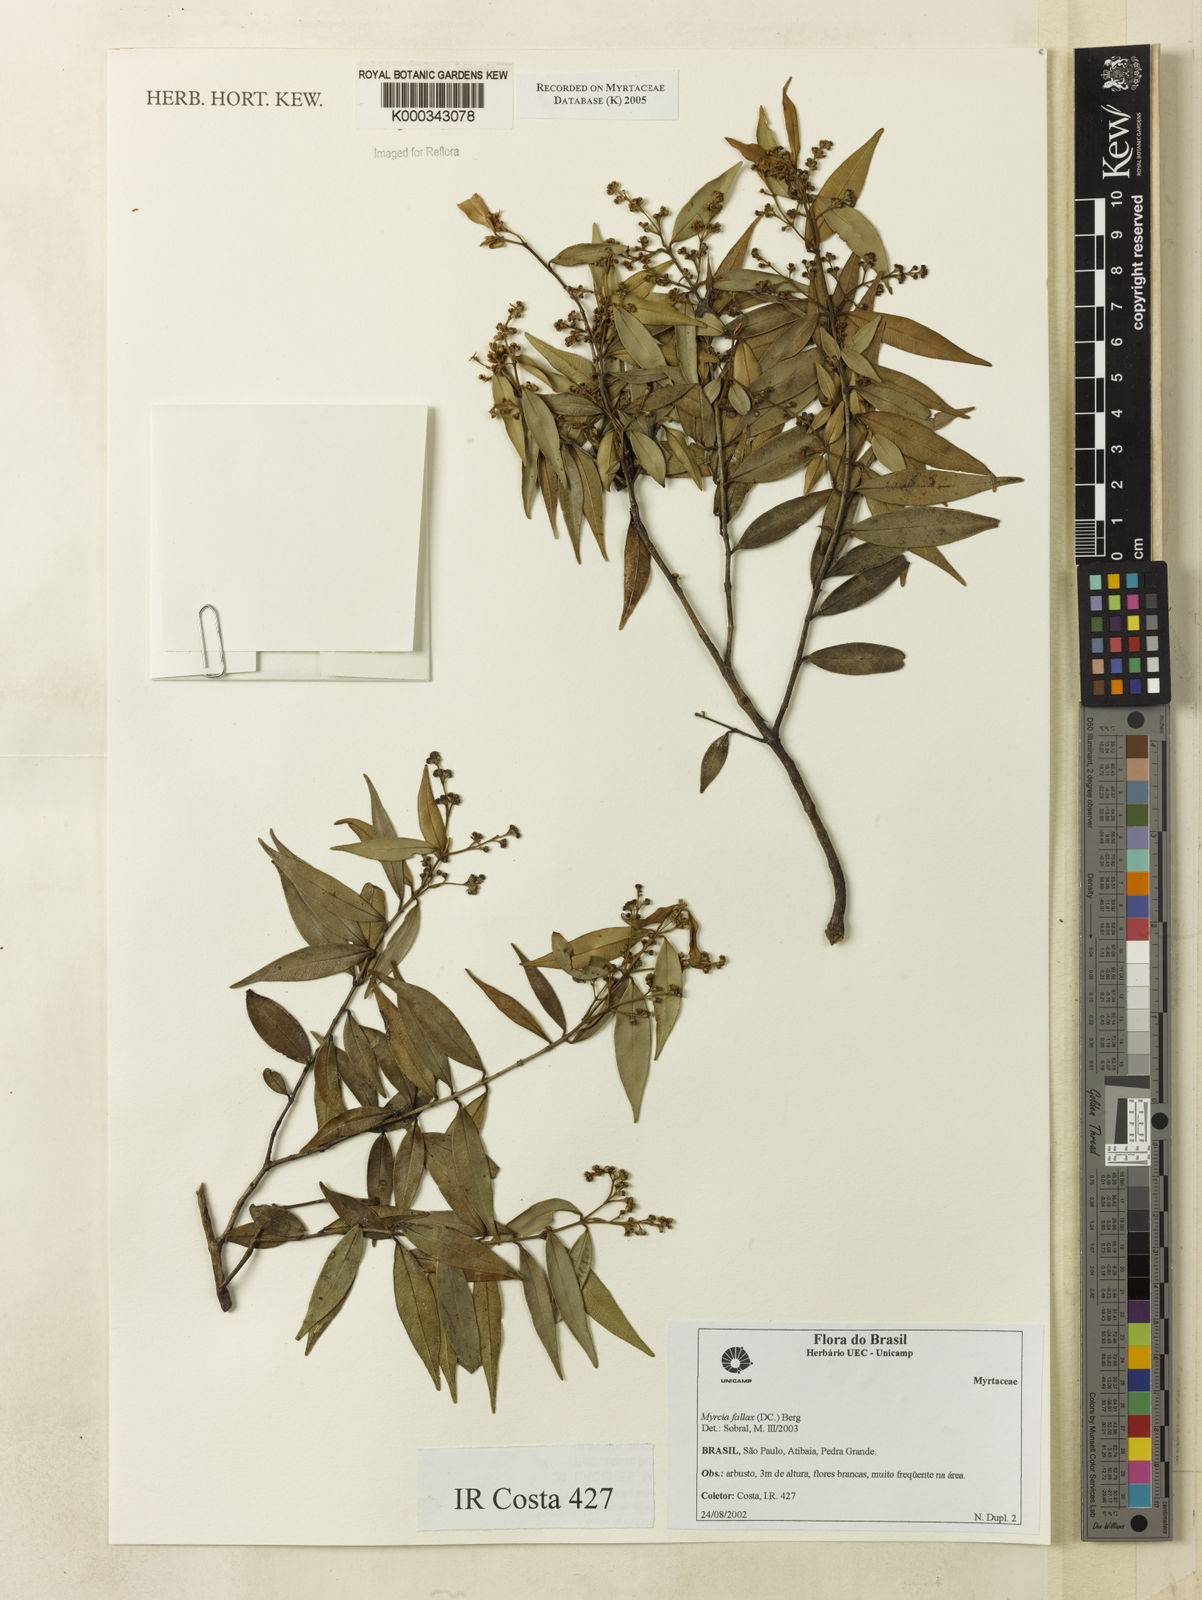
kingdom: Plantae
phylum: Tracheophyta
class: Magnoliopsida
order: Myrtales
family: Myrtaceae
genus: Myrcia
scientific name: Myrcia splendens
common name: Surinam cherry
